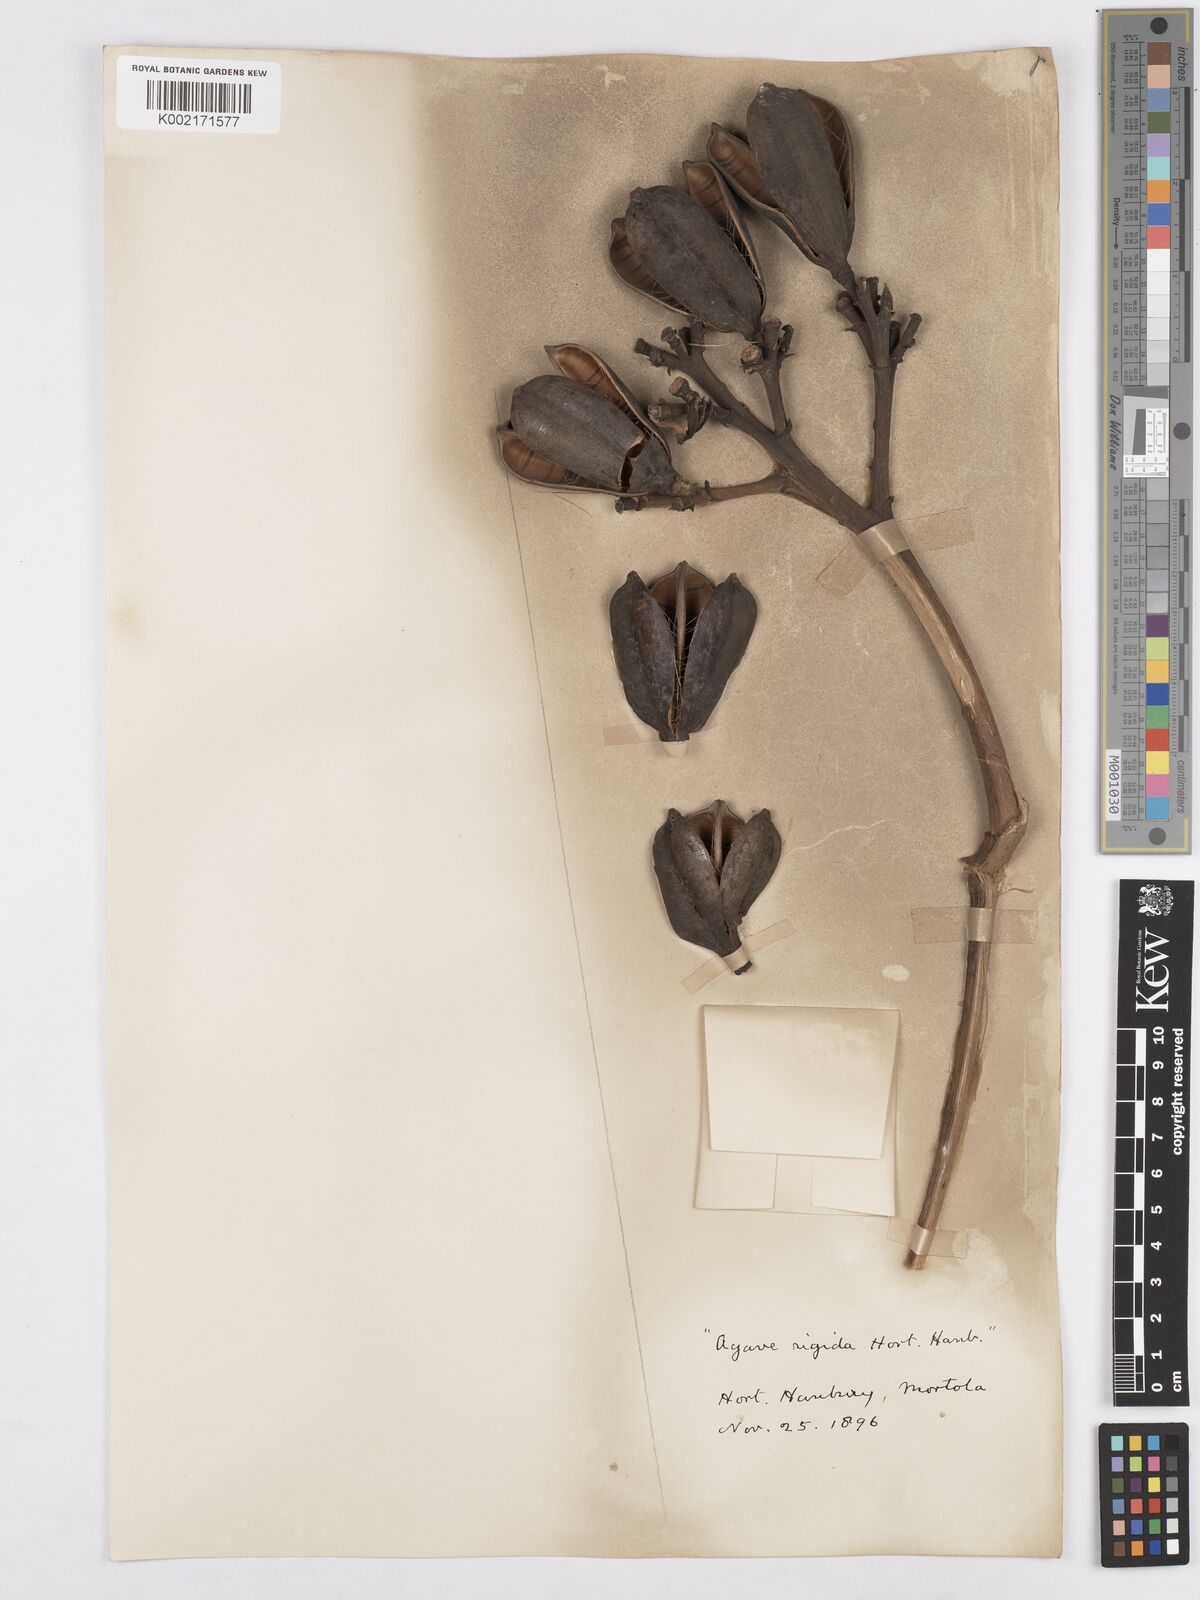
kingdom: Plantae
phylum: Tracheophyta
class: Liliopsida
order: Asparagales
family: Asparagaceae
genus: Agave
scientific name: Agave
